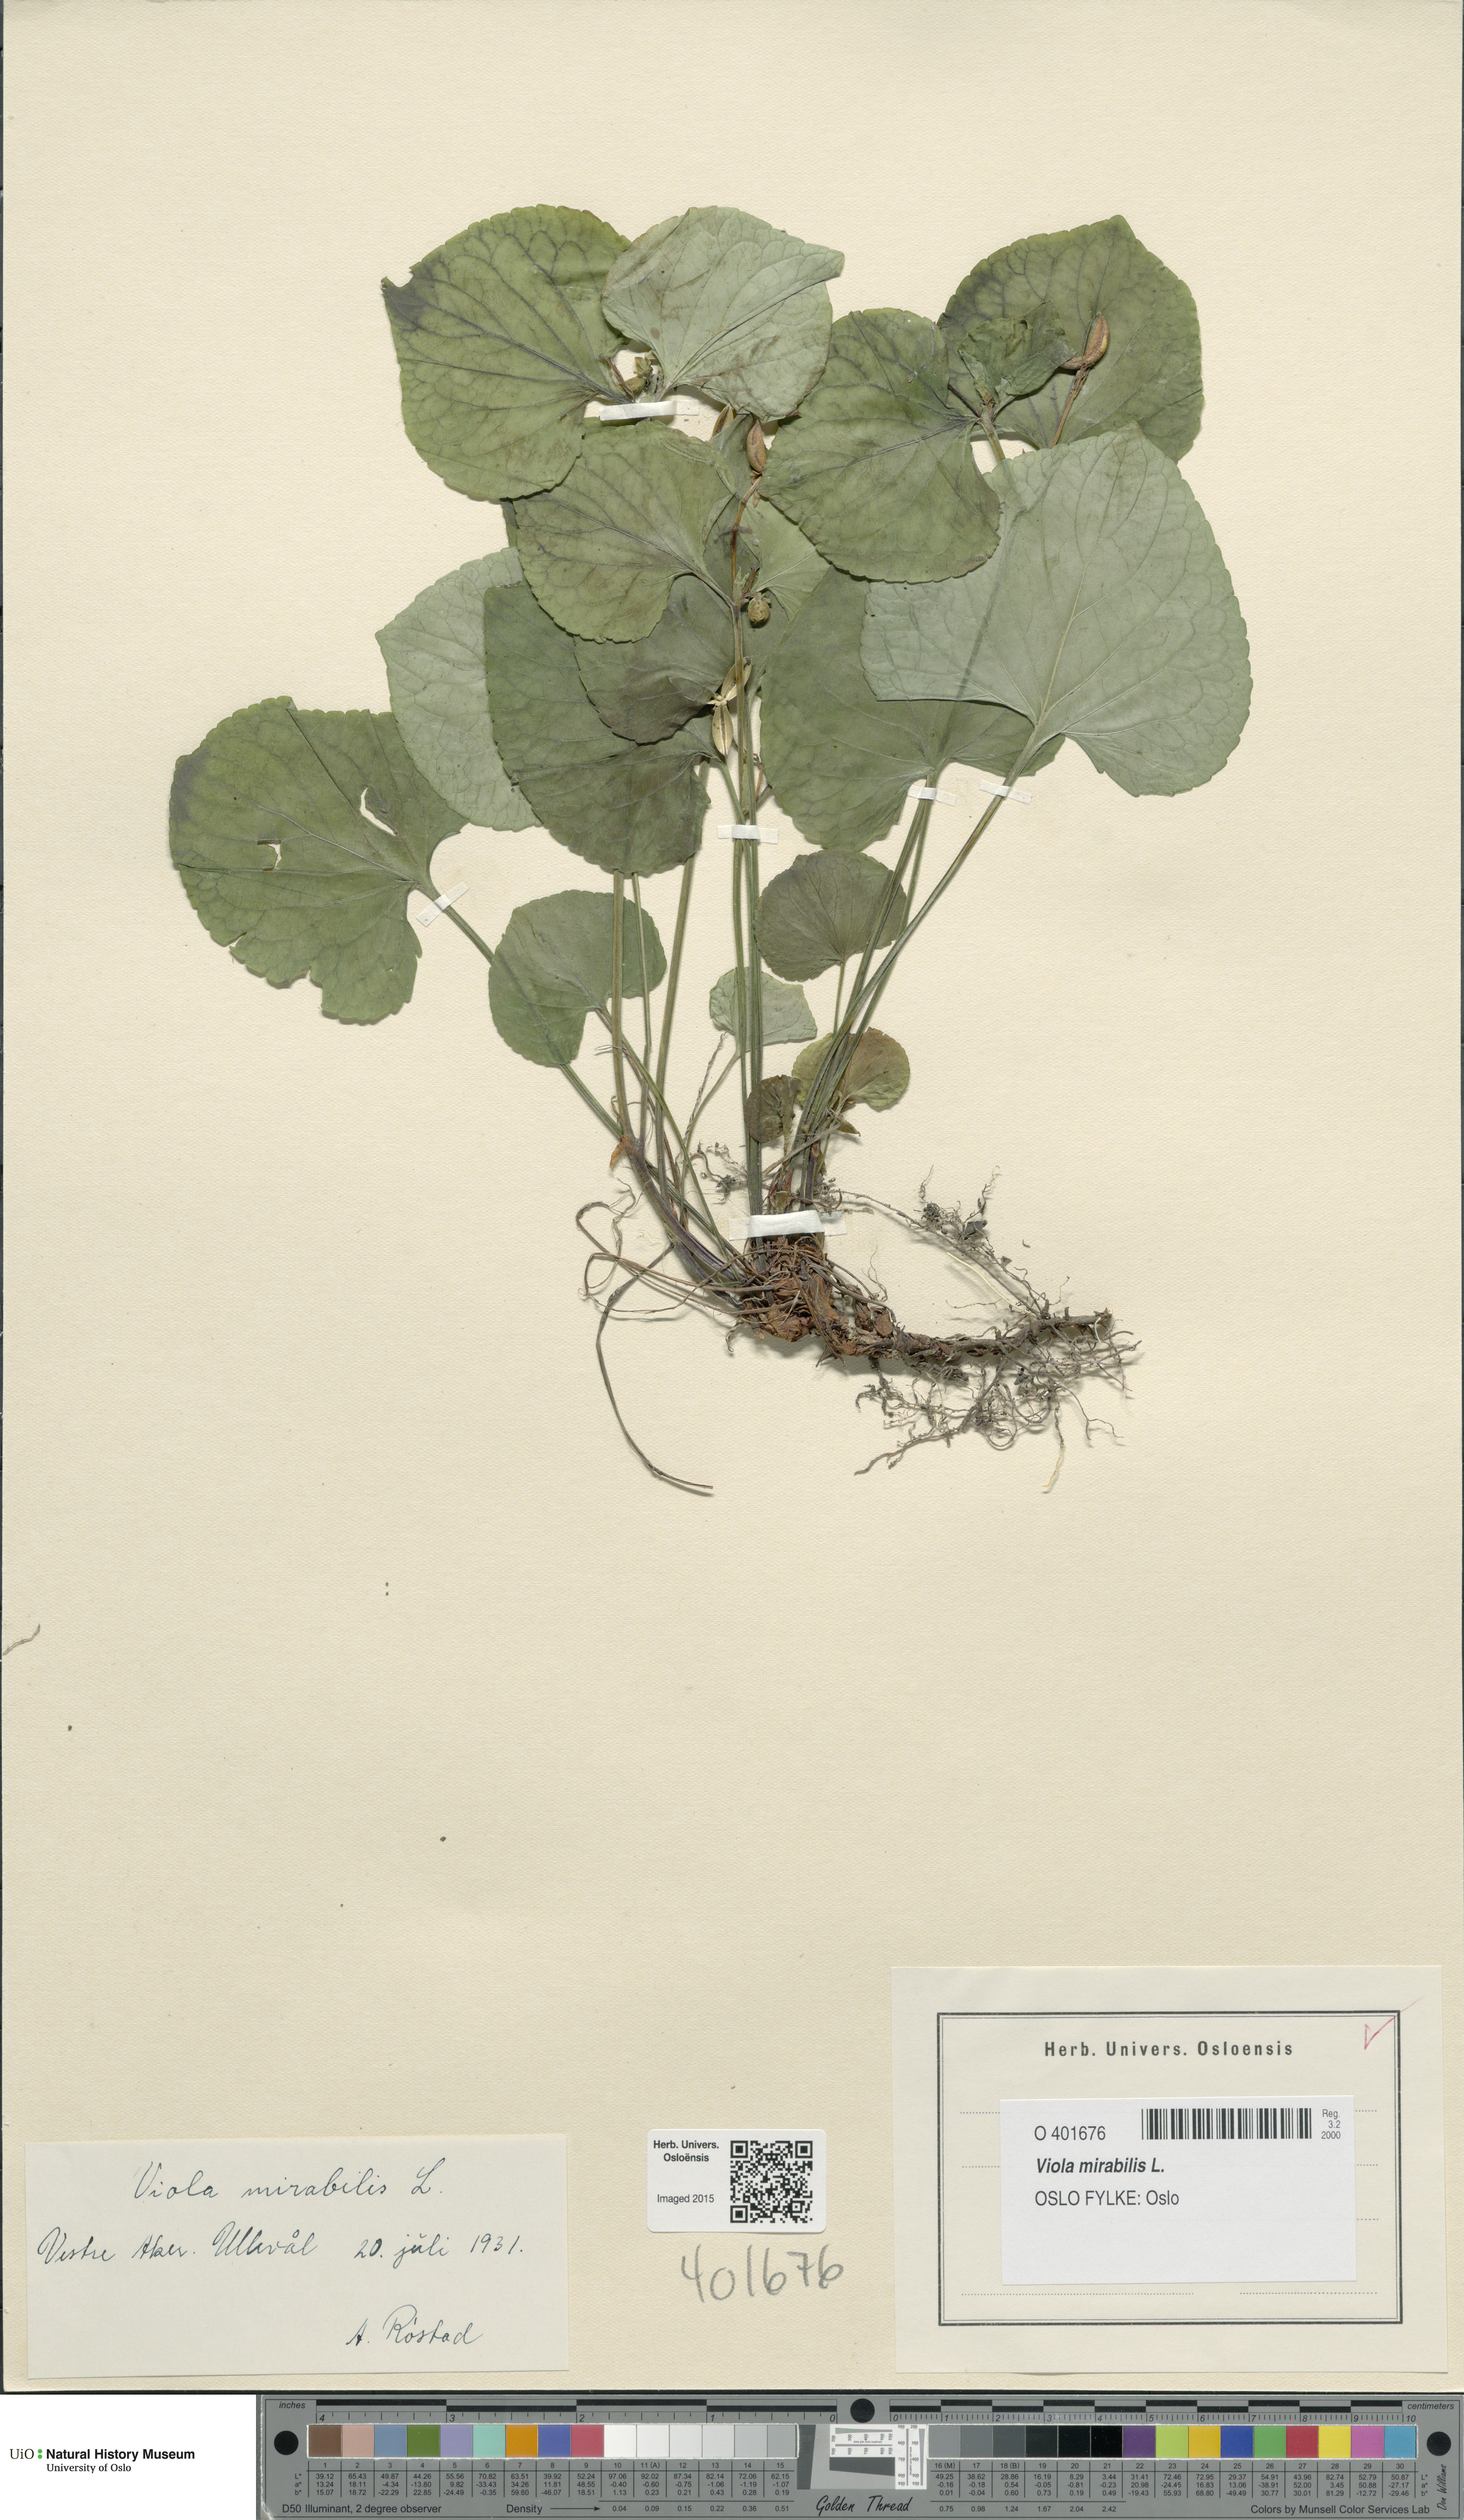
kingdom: Plantae
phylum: Tracheophyta
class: Magnoliopsida
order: Malpighiales
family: Violaceae
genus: Viola
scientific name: Viola mirabilis
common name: Wonder violet
